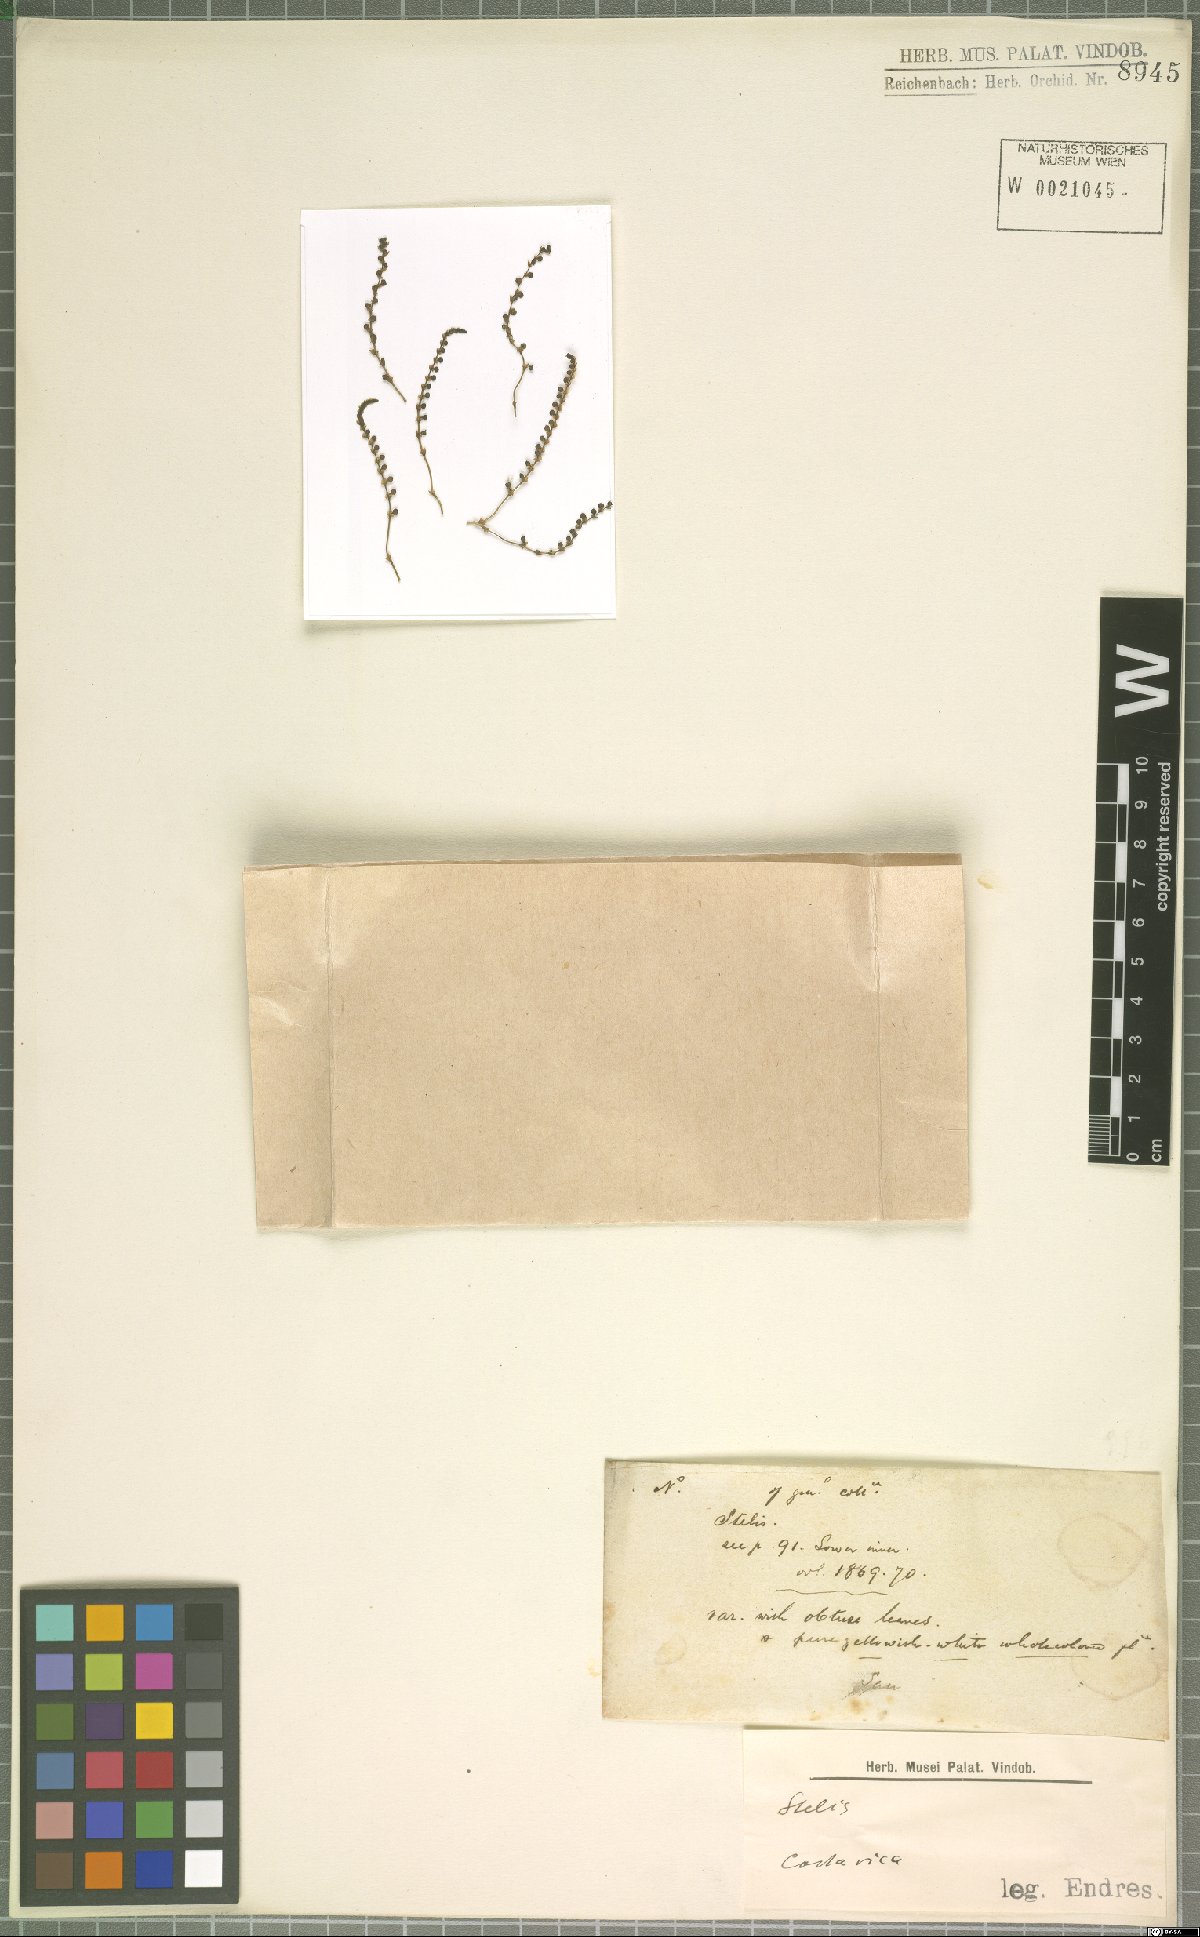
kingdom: Plantae
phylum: Tracheophyta
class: Liliopsida
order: Asparagales
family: Orchidaceae
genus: Stelis
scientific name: Stelis
